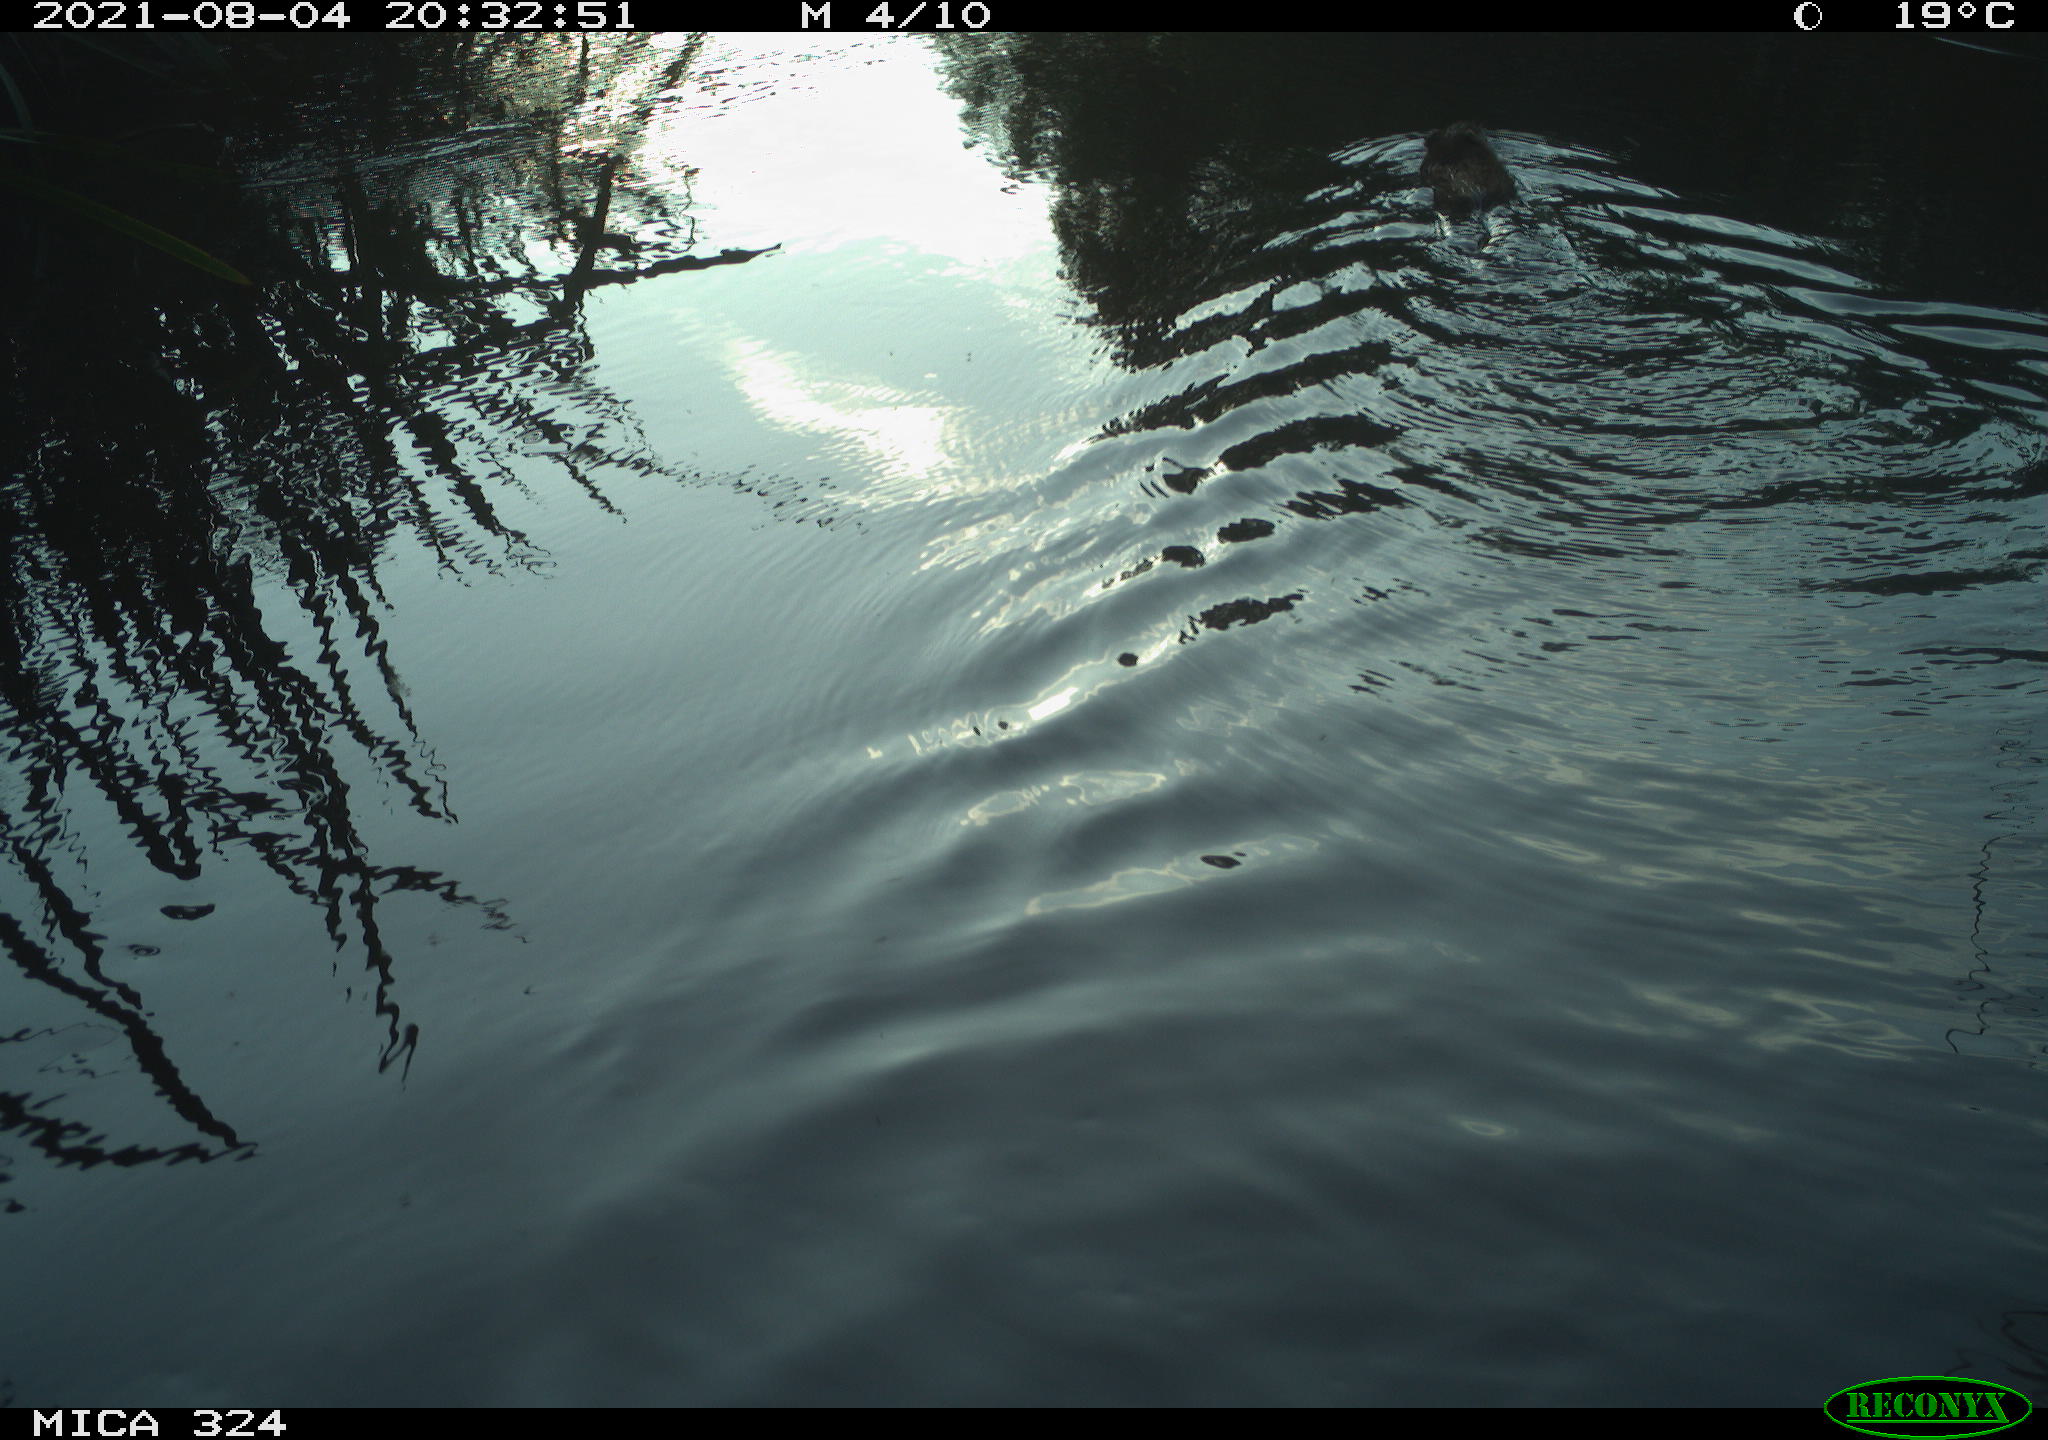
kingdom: Animalia
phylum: Chordata
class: Mammalia
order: Rodentia
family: Cricetidae
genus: Ondatra
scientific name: Ondatra zibethicus
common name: Muskrat
